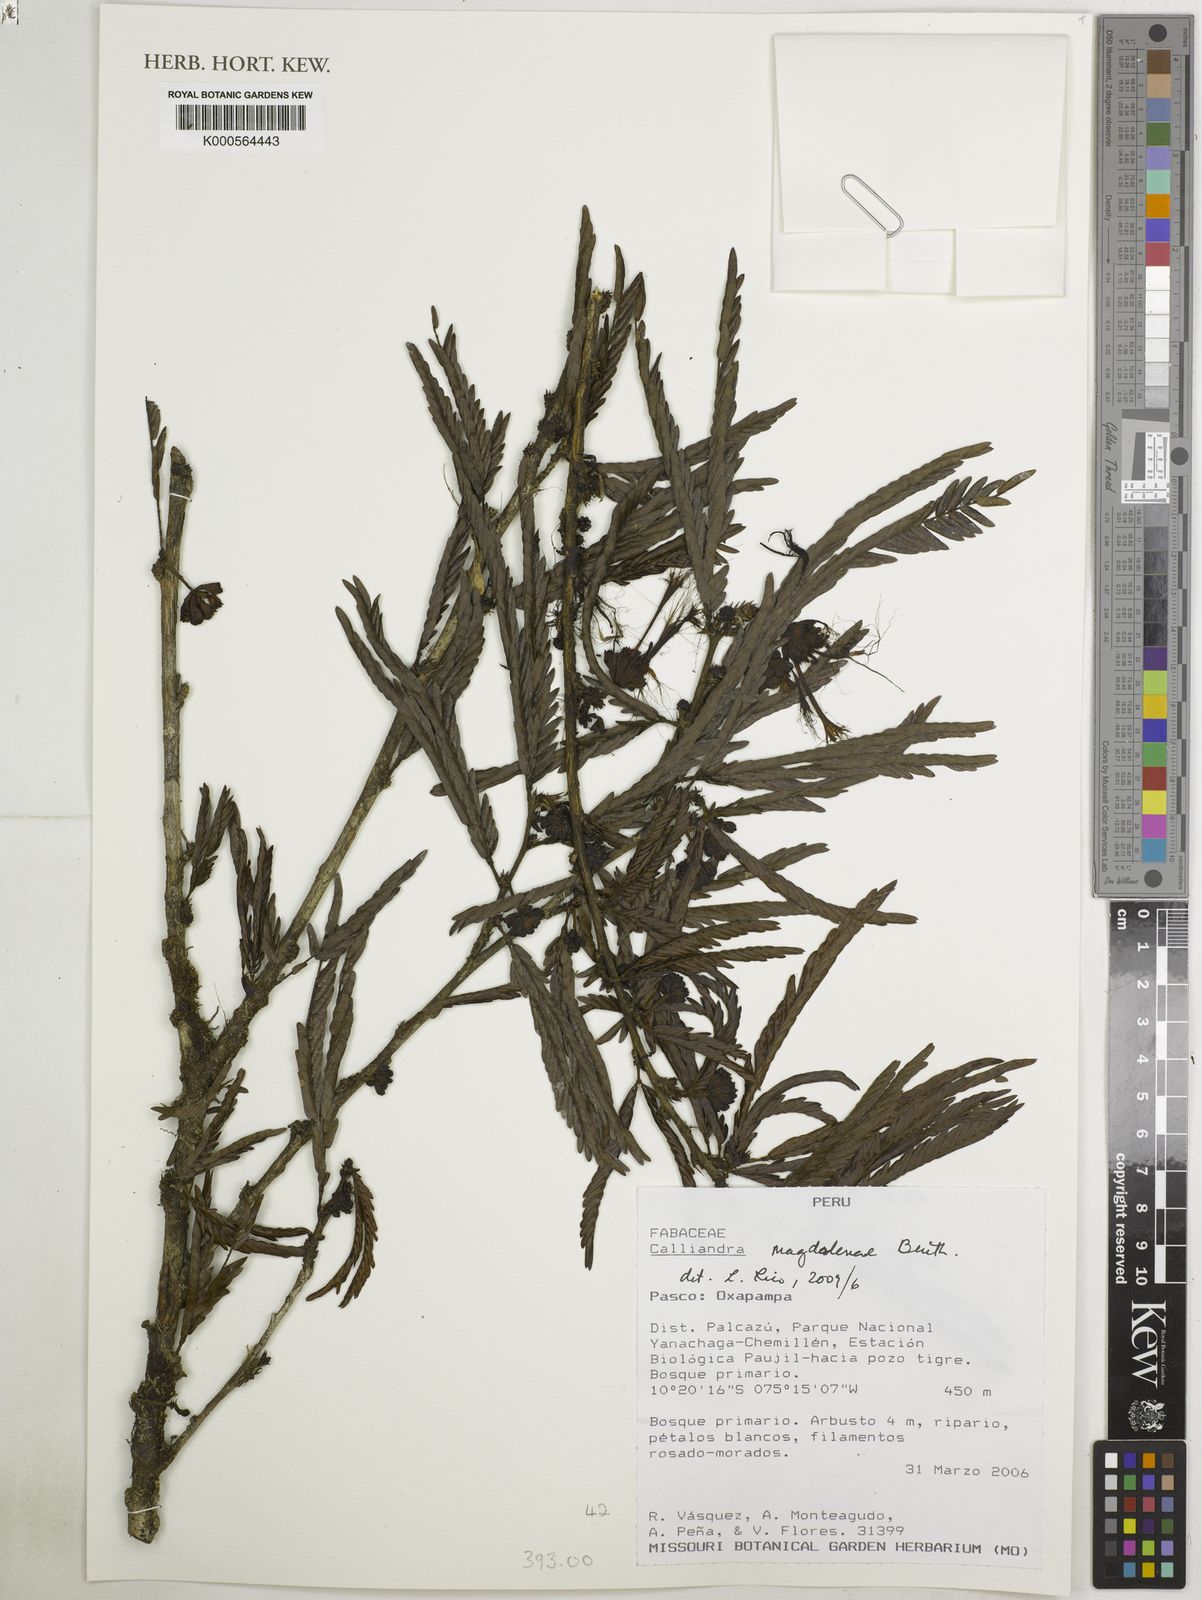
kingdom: Plantae
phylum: Tracheophyta
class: Magnoliopsida
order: Fabales
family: Fabaceae
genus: Calliandra
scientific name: Calliandra magdalenae
